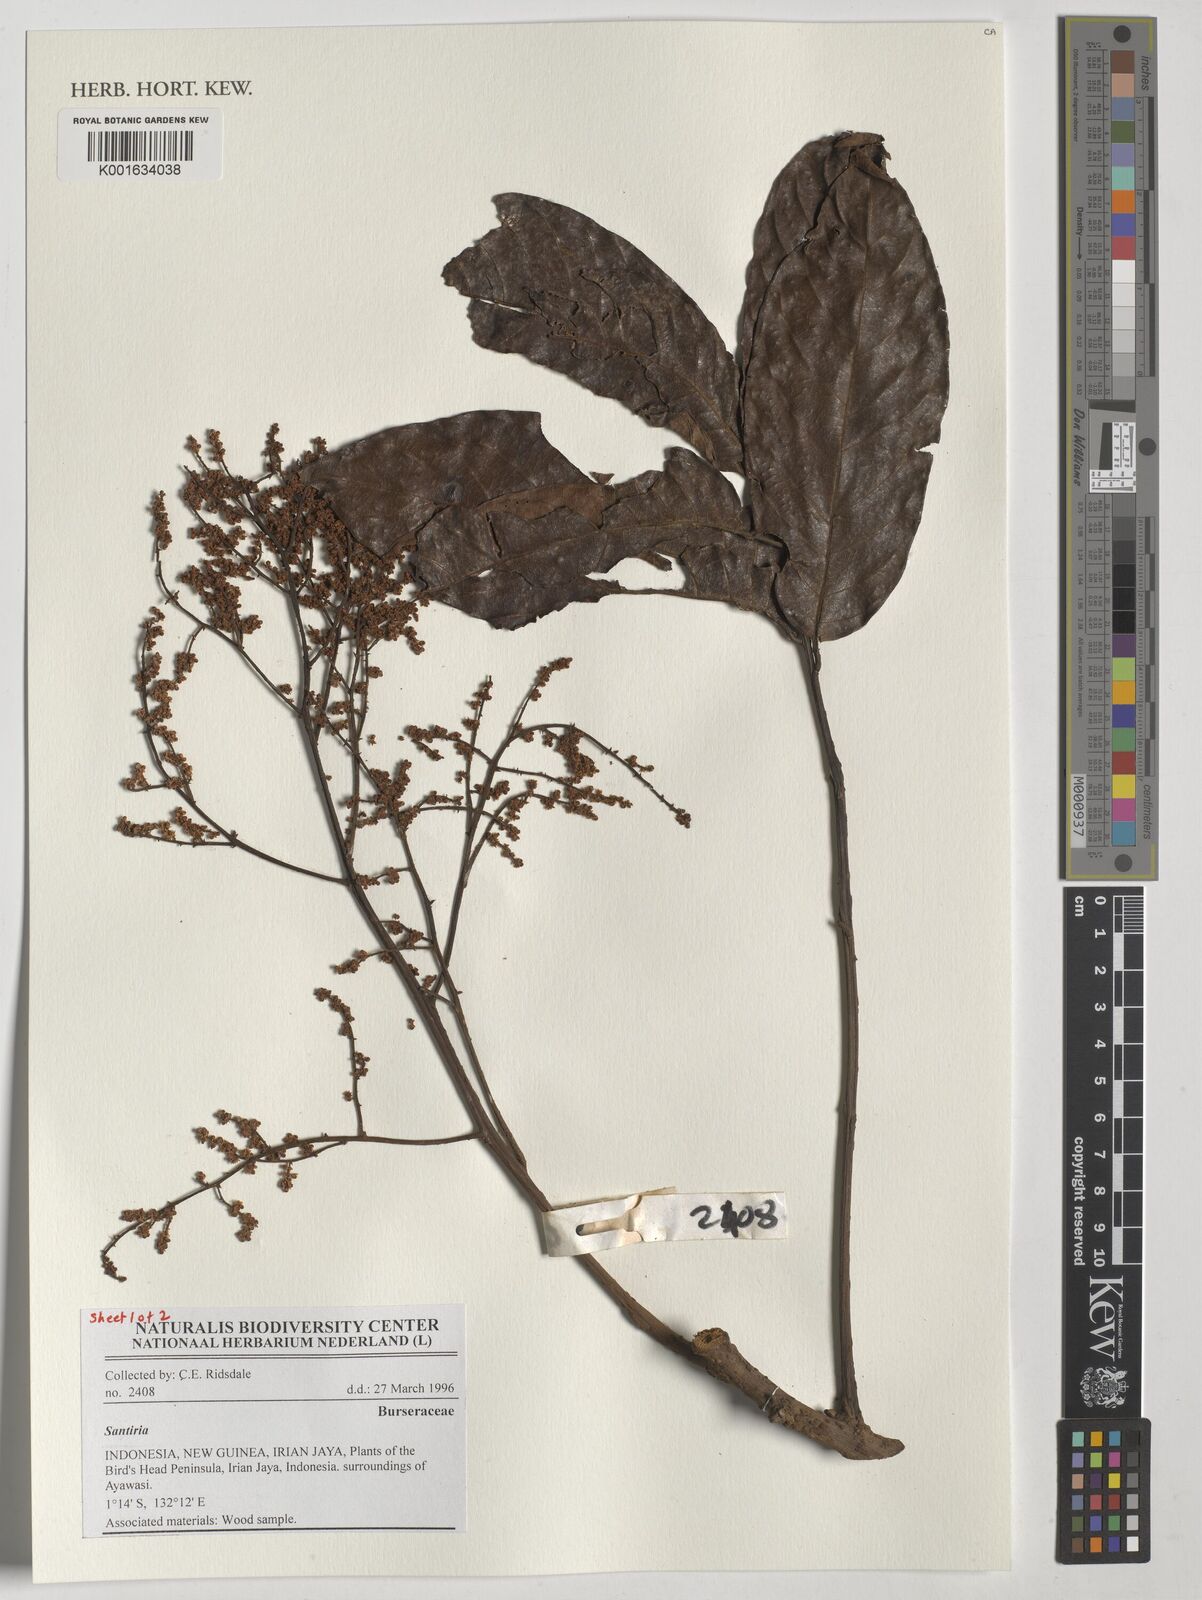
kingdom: Plantae
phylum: Tracheophyta
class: Magnoliopsida
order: Sapindales
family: Burseraceae
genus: Santiria
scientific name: Santiria
